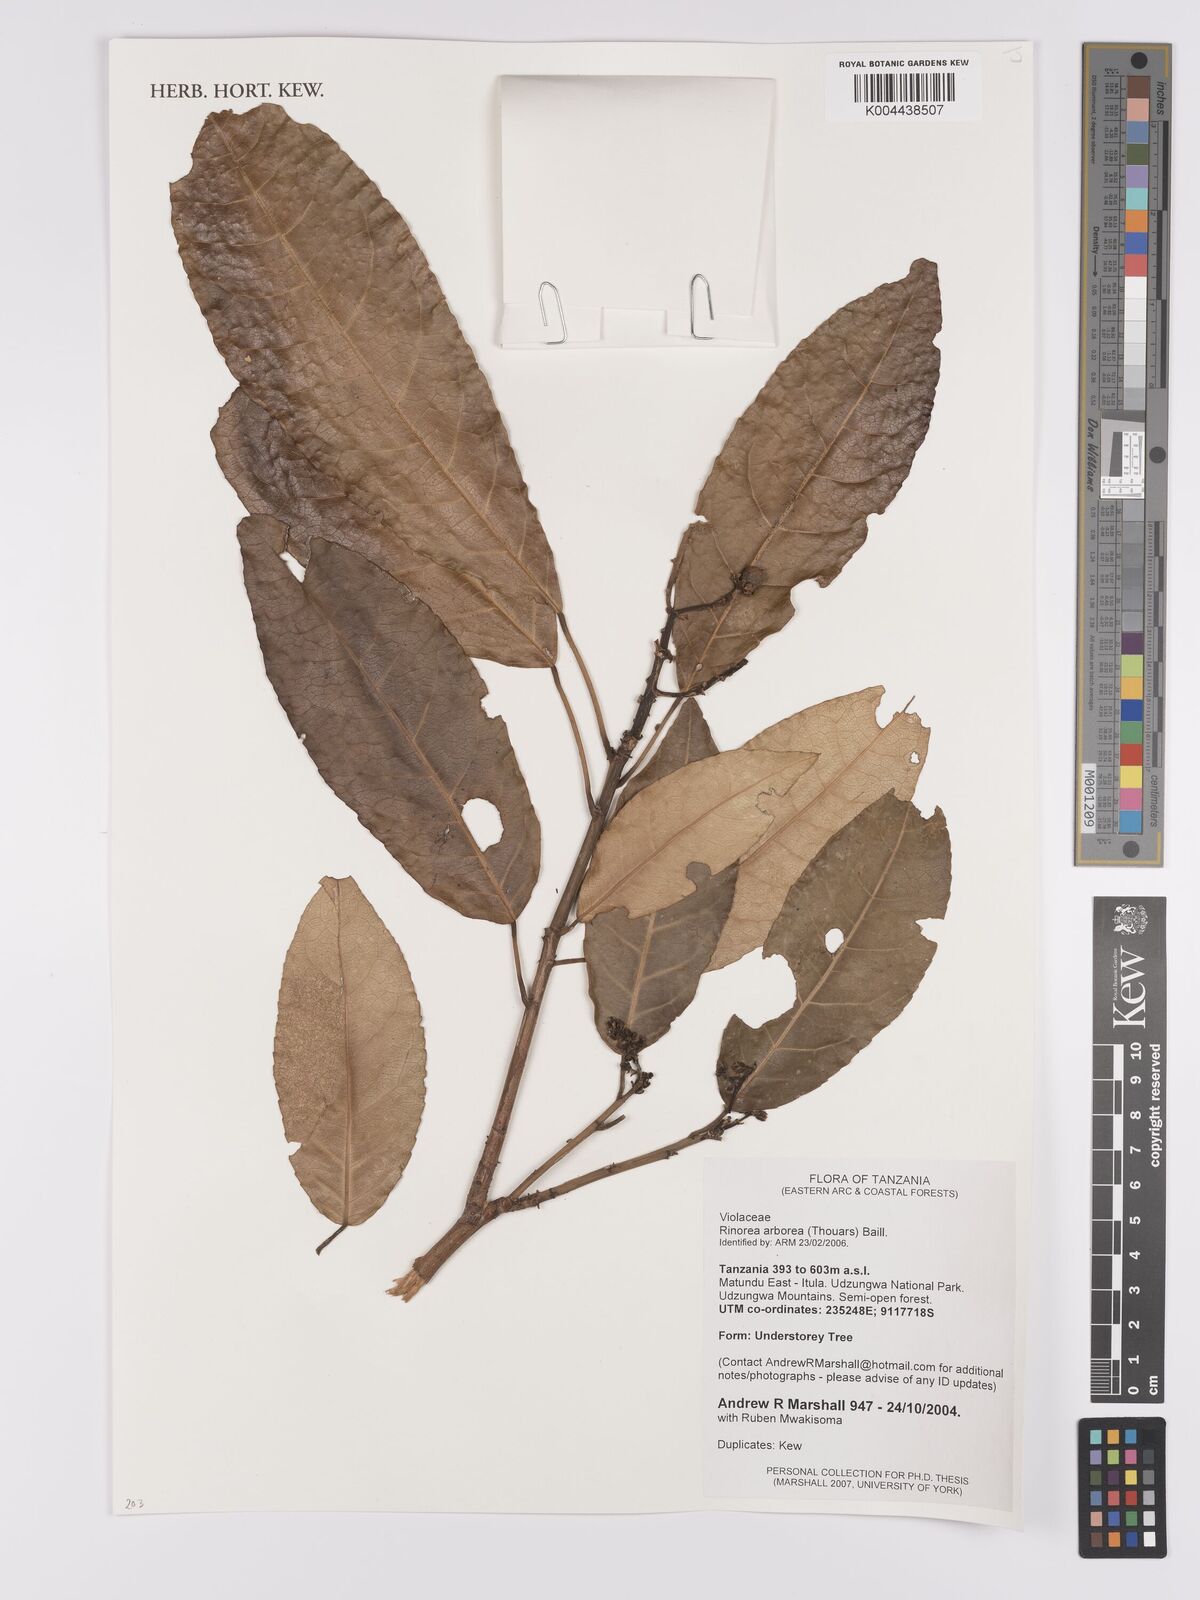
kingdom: Plantae
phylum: Tracheophyta
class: Magnoliopsida
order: Malpighiales
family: Violaceae
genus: Rinorea
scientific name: Rinorea arborea
